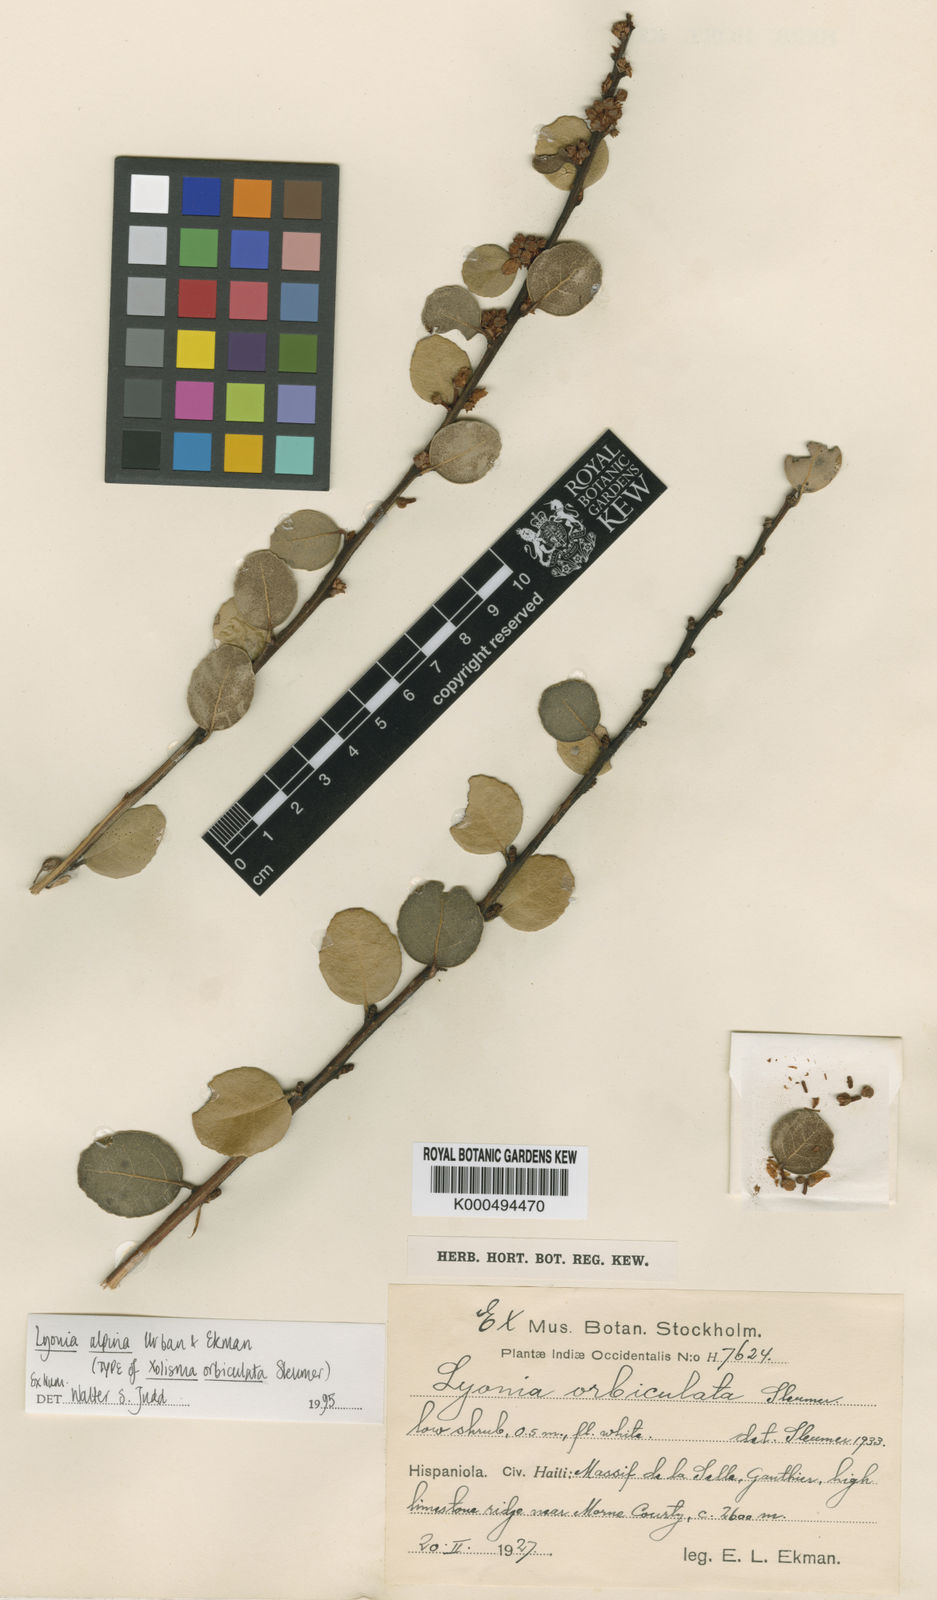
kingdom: Plantae
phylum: Tracheophyta
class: Magnoliopsida
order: Ericales
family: Ericaceae
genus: Lyonia
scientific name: Lyonia alpina
